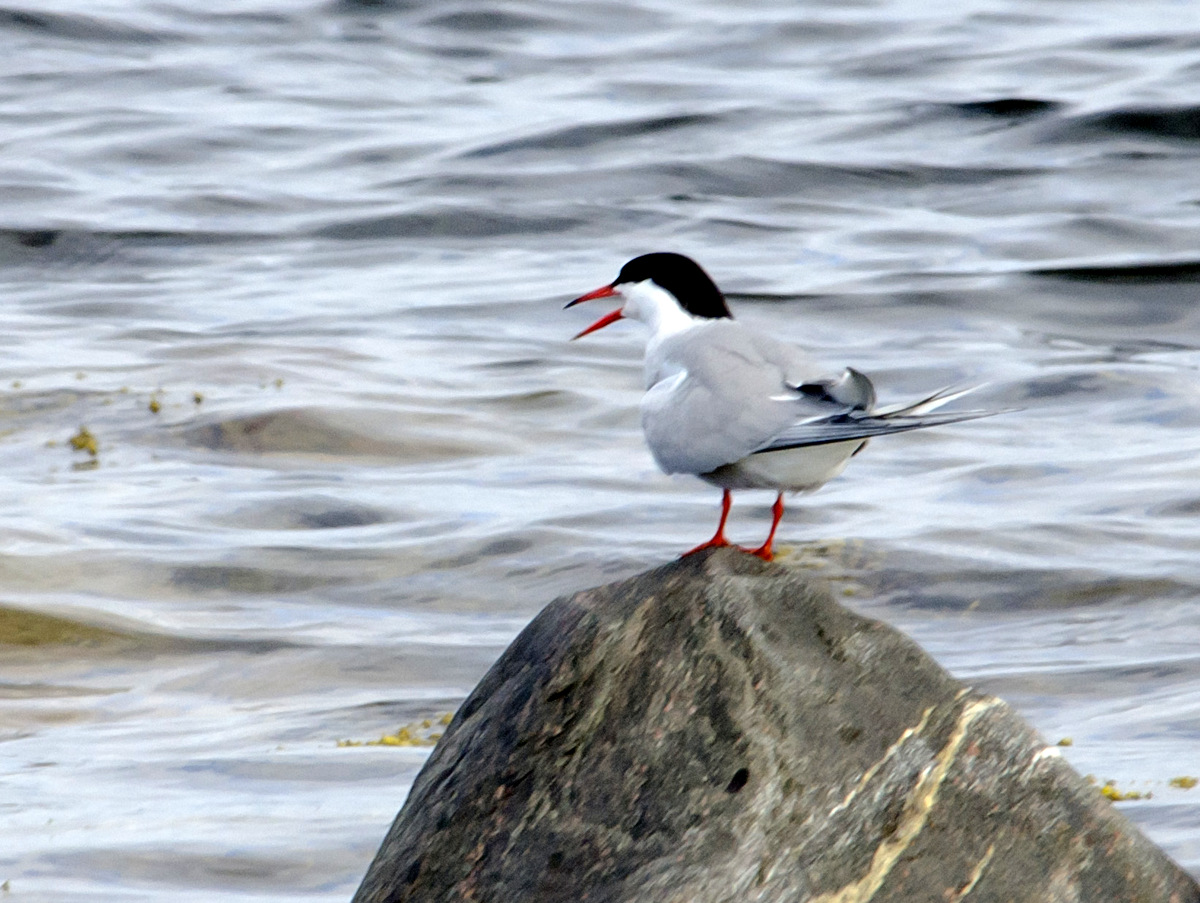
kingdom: Animalia
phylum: Chordata
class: Aves
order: Charadriiformes
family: Laridae
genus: Sterna
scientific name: Sterna hirundo
